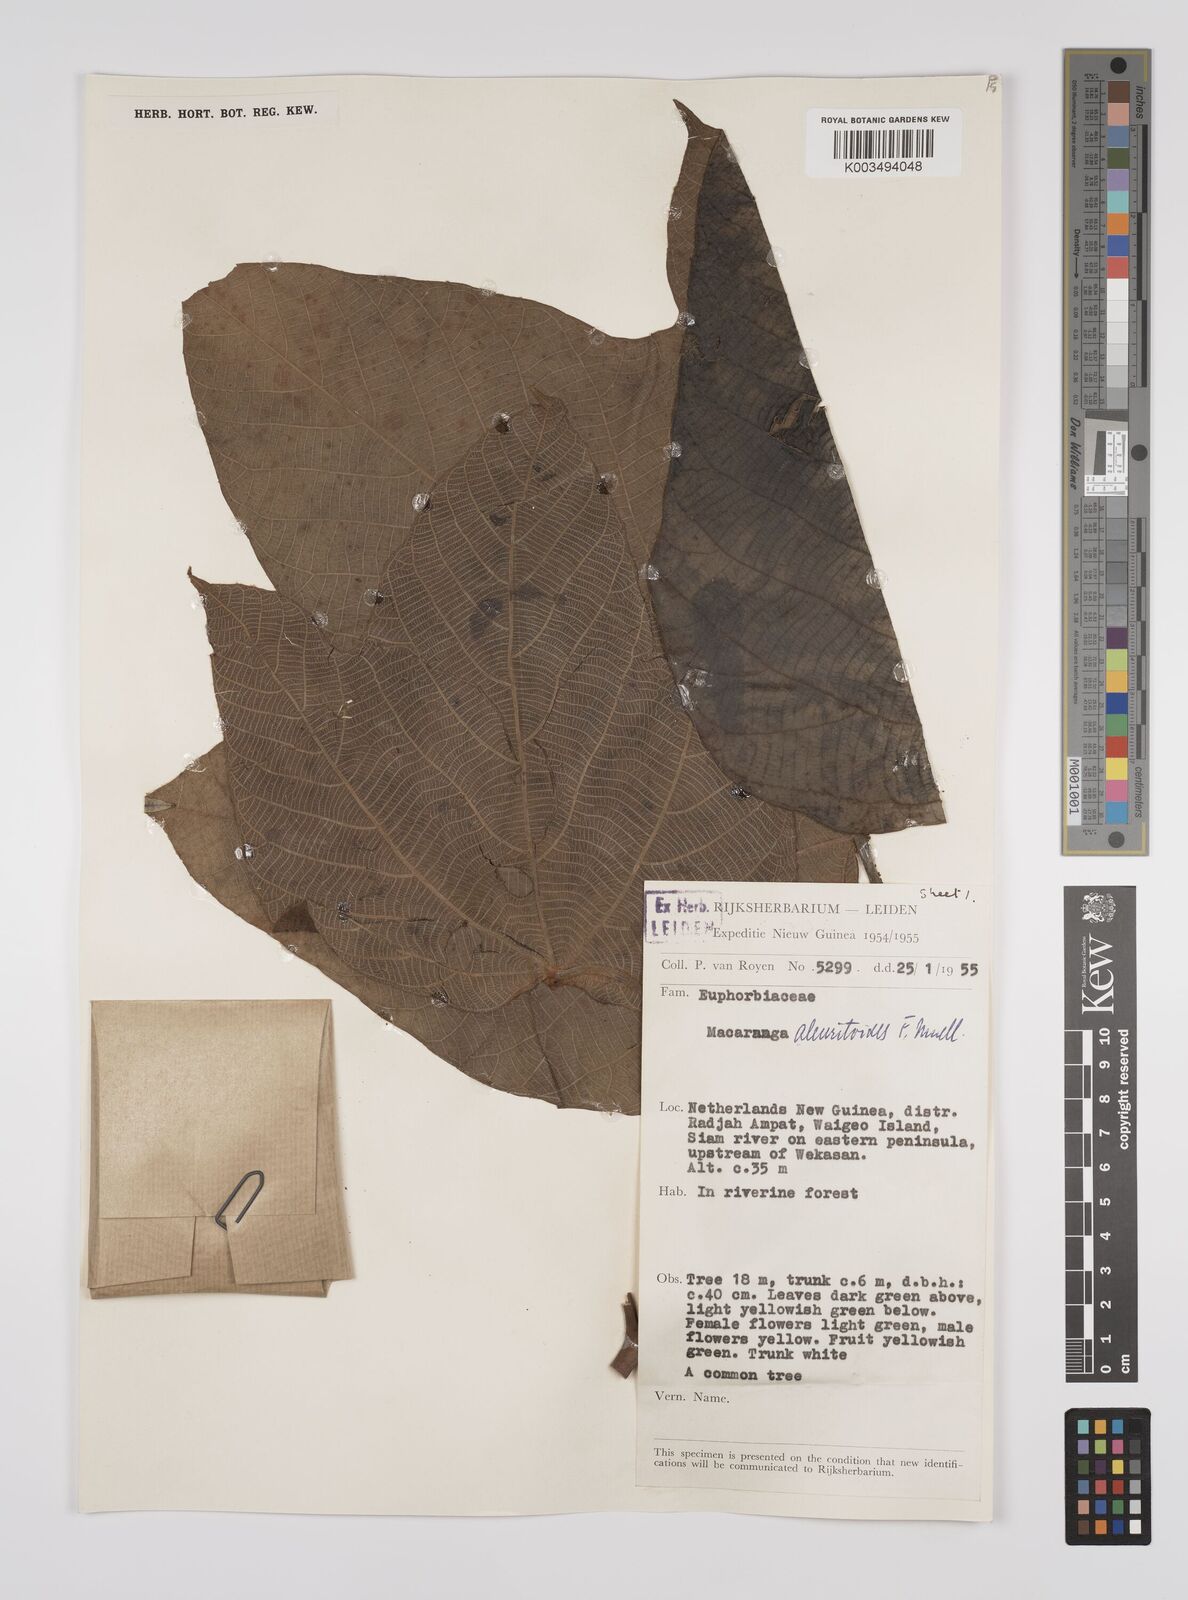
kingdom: Plantae
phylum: Tracheophyta
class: Magnoliopsida
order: Malpighiales
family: Euphorbiaceae
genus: Macaranga
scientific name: Macaranga aleuritoides
